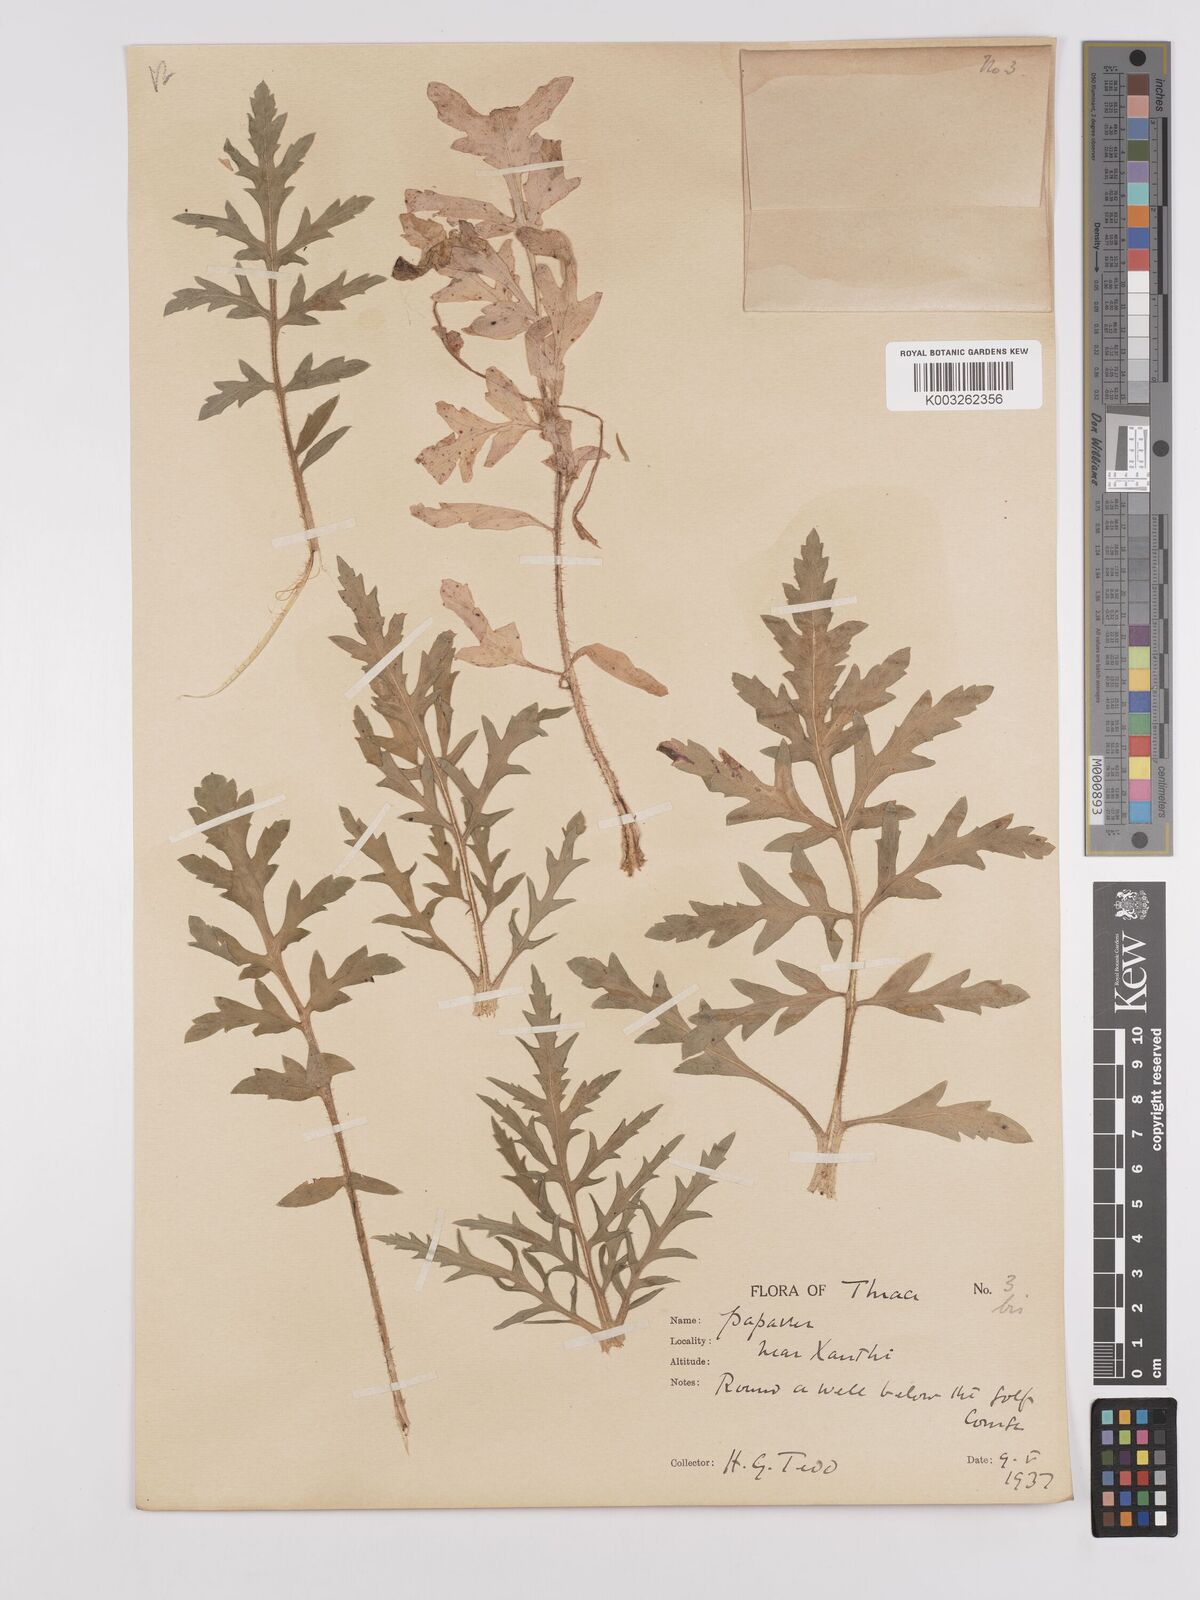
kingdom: Plantae
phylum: Tracheophyta
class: Magnoliopsida
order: Ranunculales
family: Papaveraceae
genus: Papaver
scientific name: Papaver rhoeas
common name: Corn poppy
